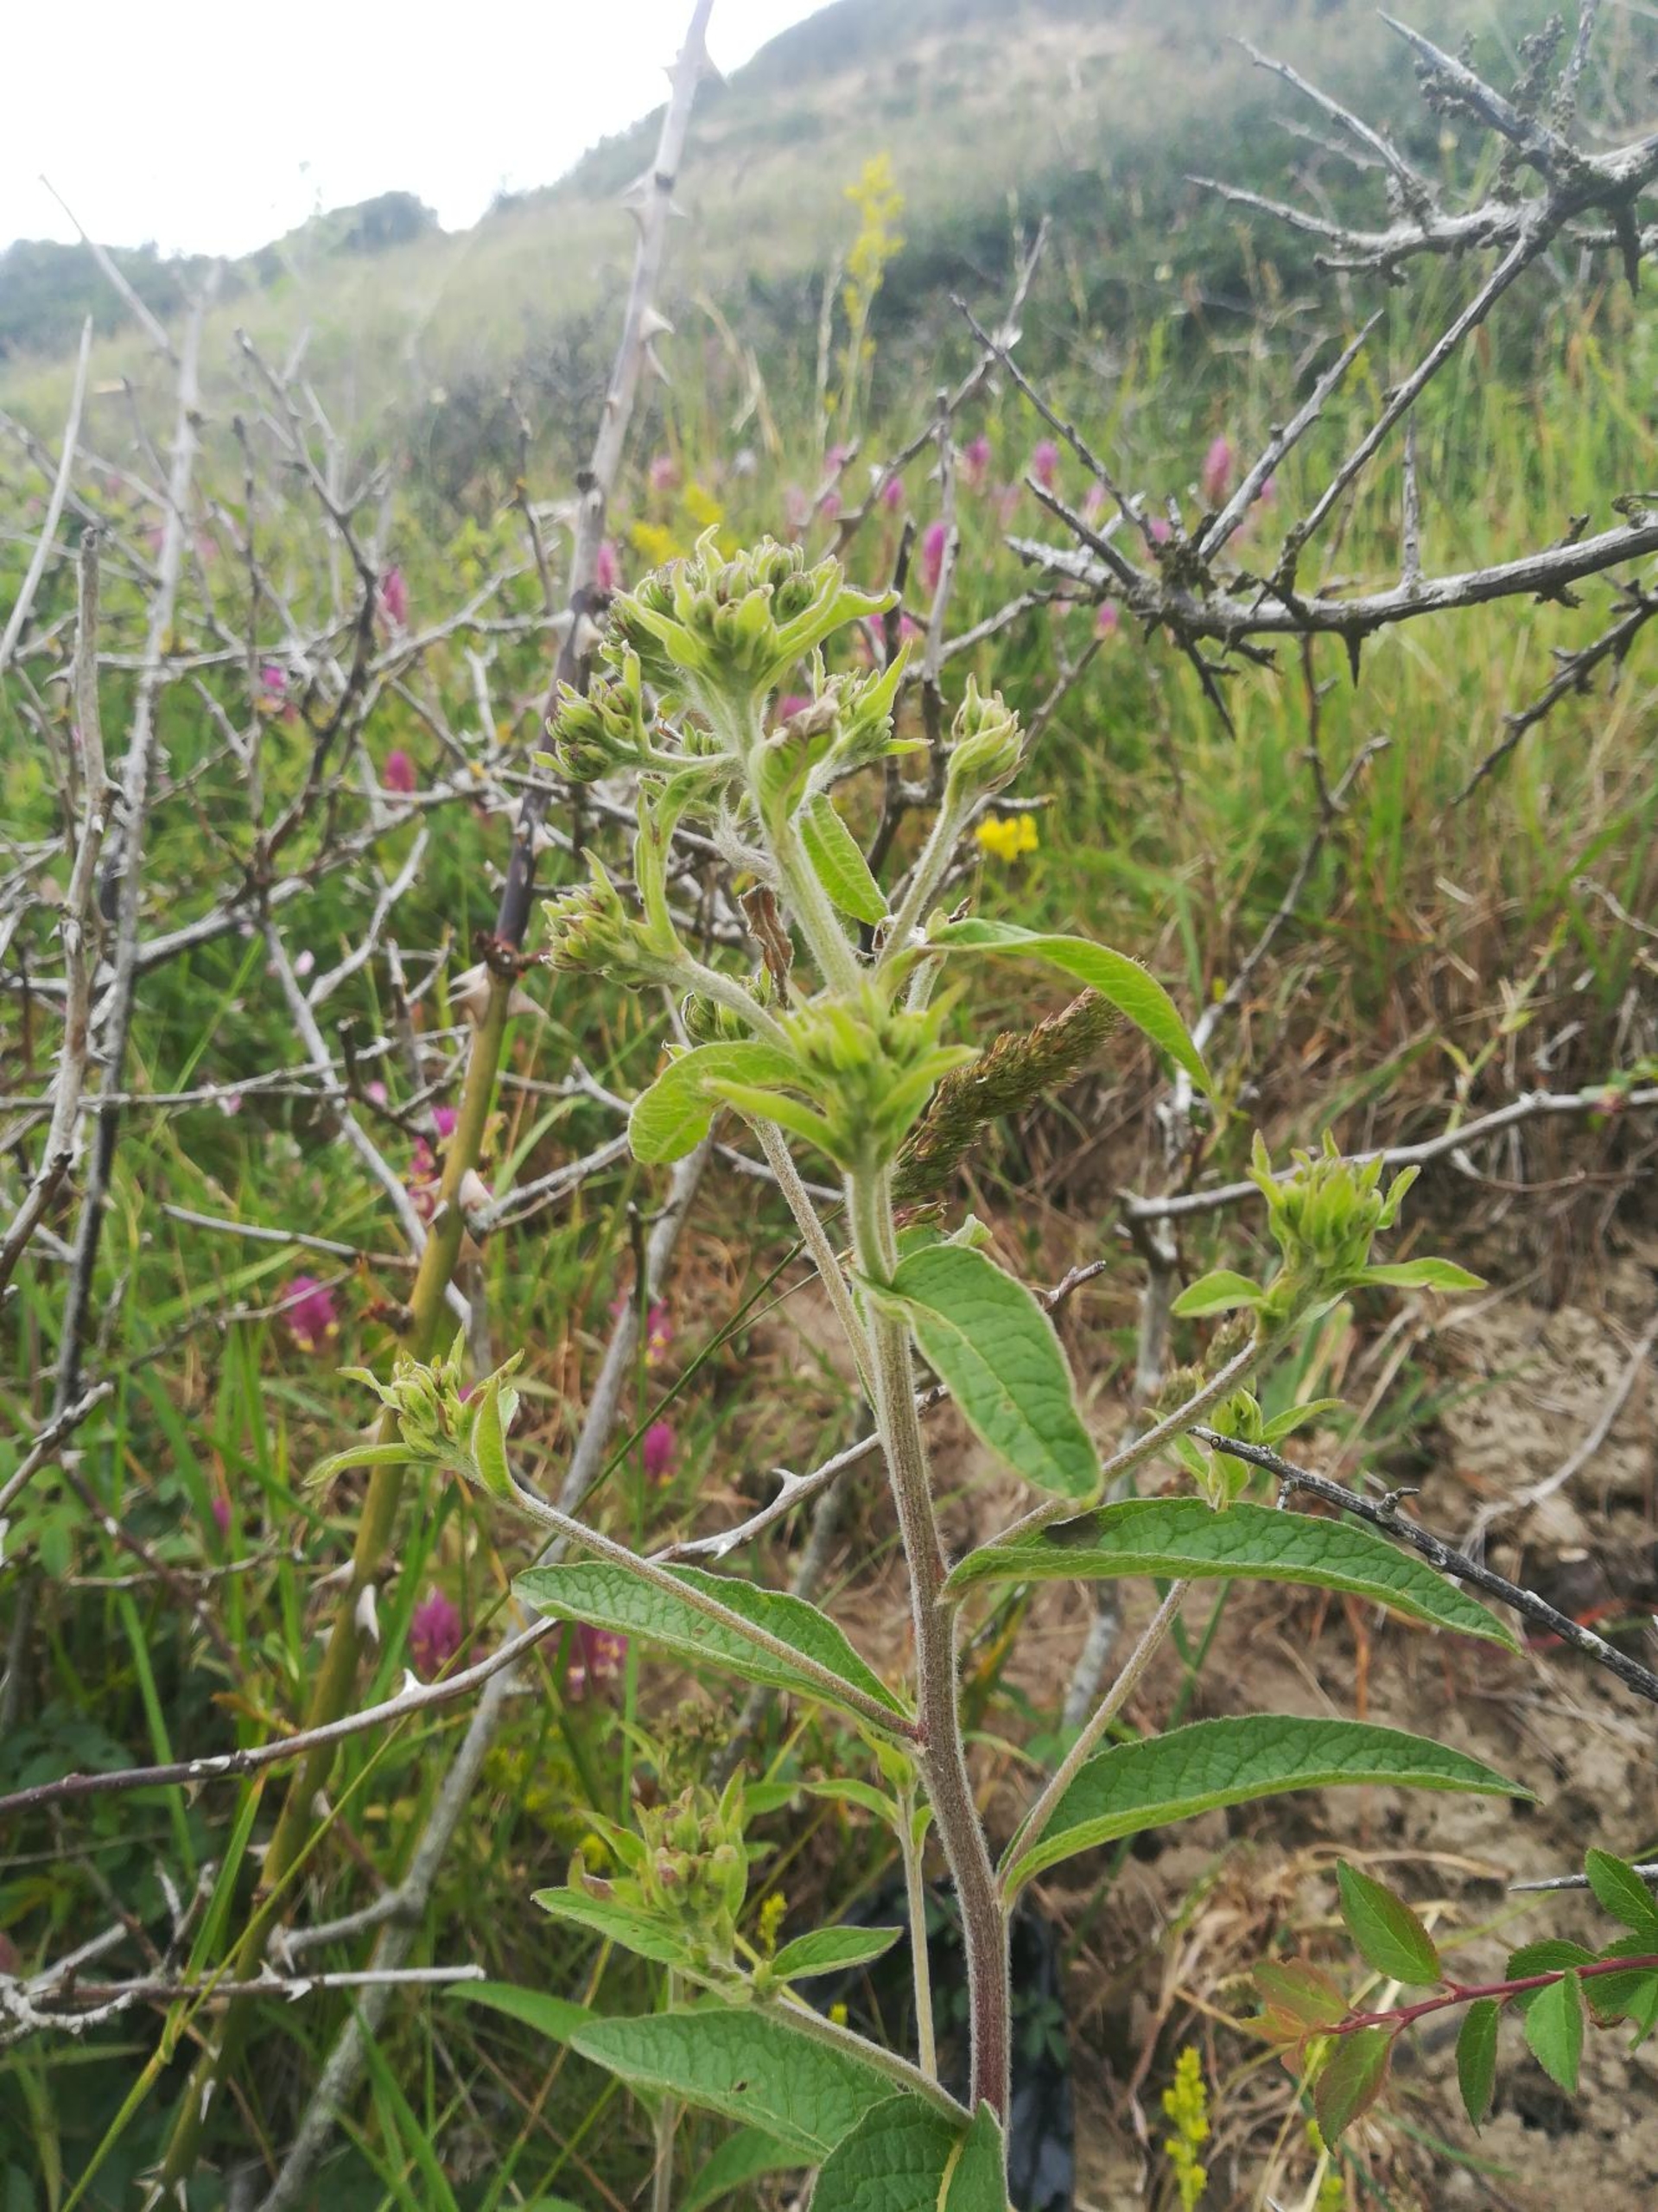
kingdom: Plantae
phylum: Tracheophyta
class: Magnoliopsida
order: Asterales
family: Asteraceae
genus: Pentanema
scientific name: Pentanema squarrosum
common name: Trekløft-alant
